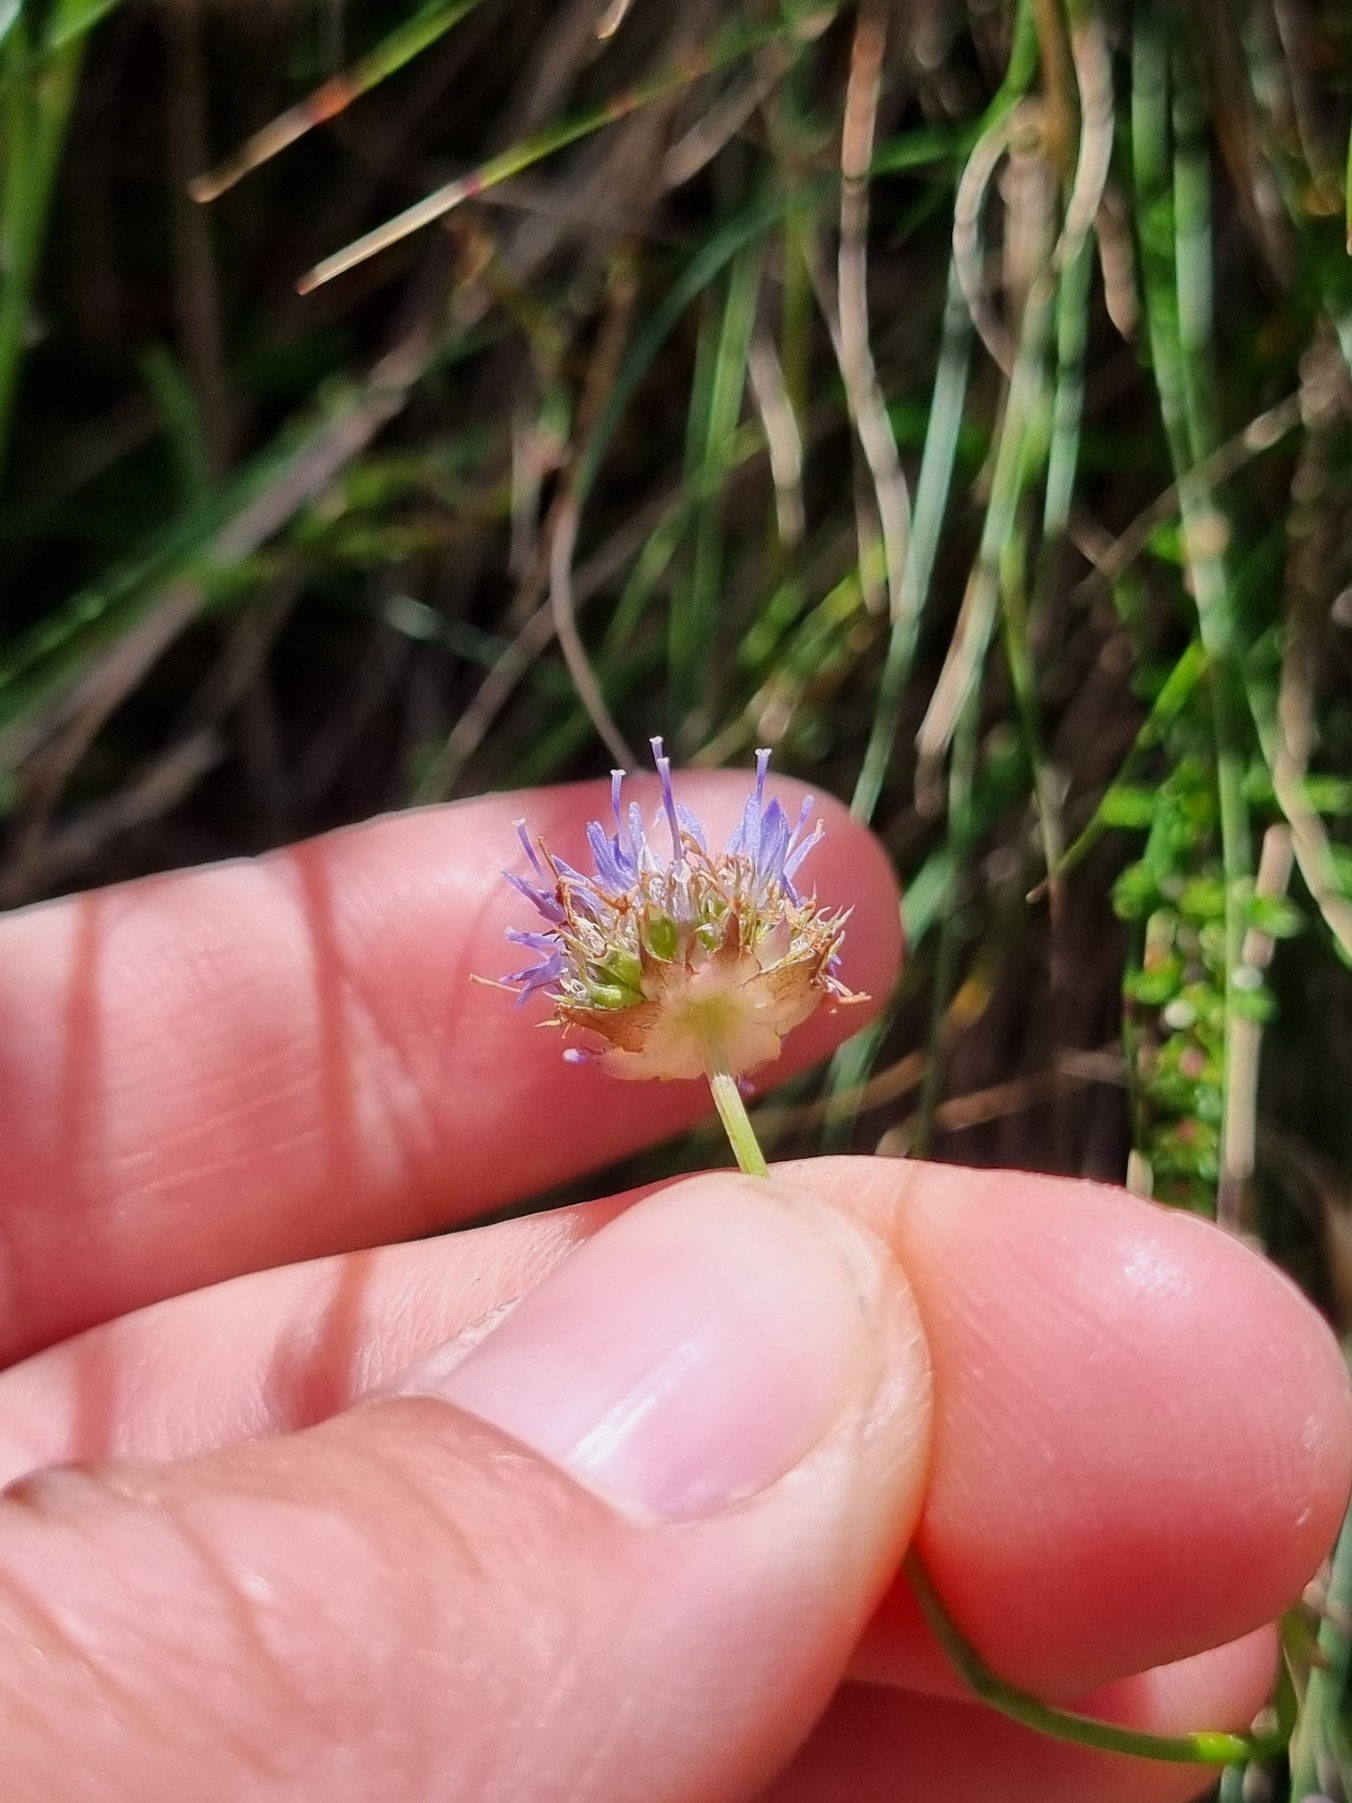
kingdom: Plantae
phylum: Tracheophyta
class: Magnoliopsida
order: Asterales
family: Campanulaceae
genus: Jasione
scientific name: Jasione montana
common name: Blåmunke
